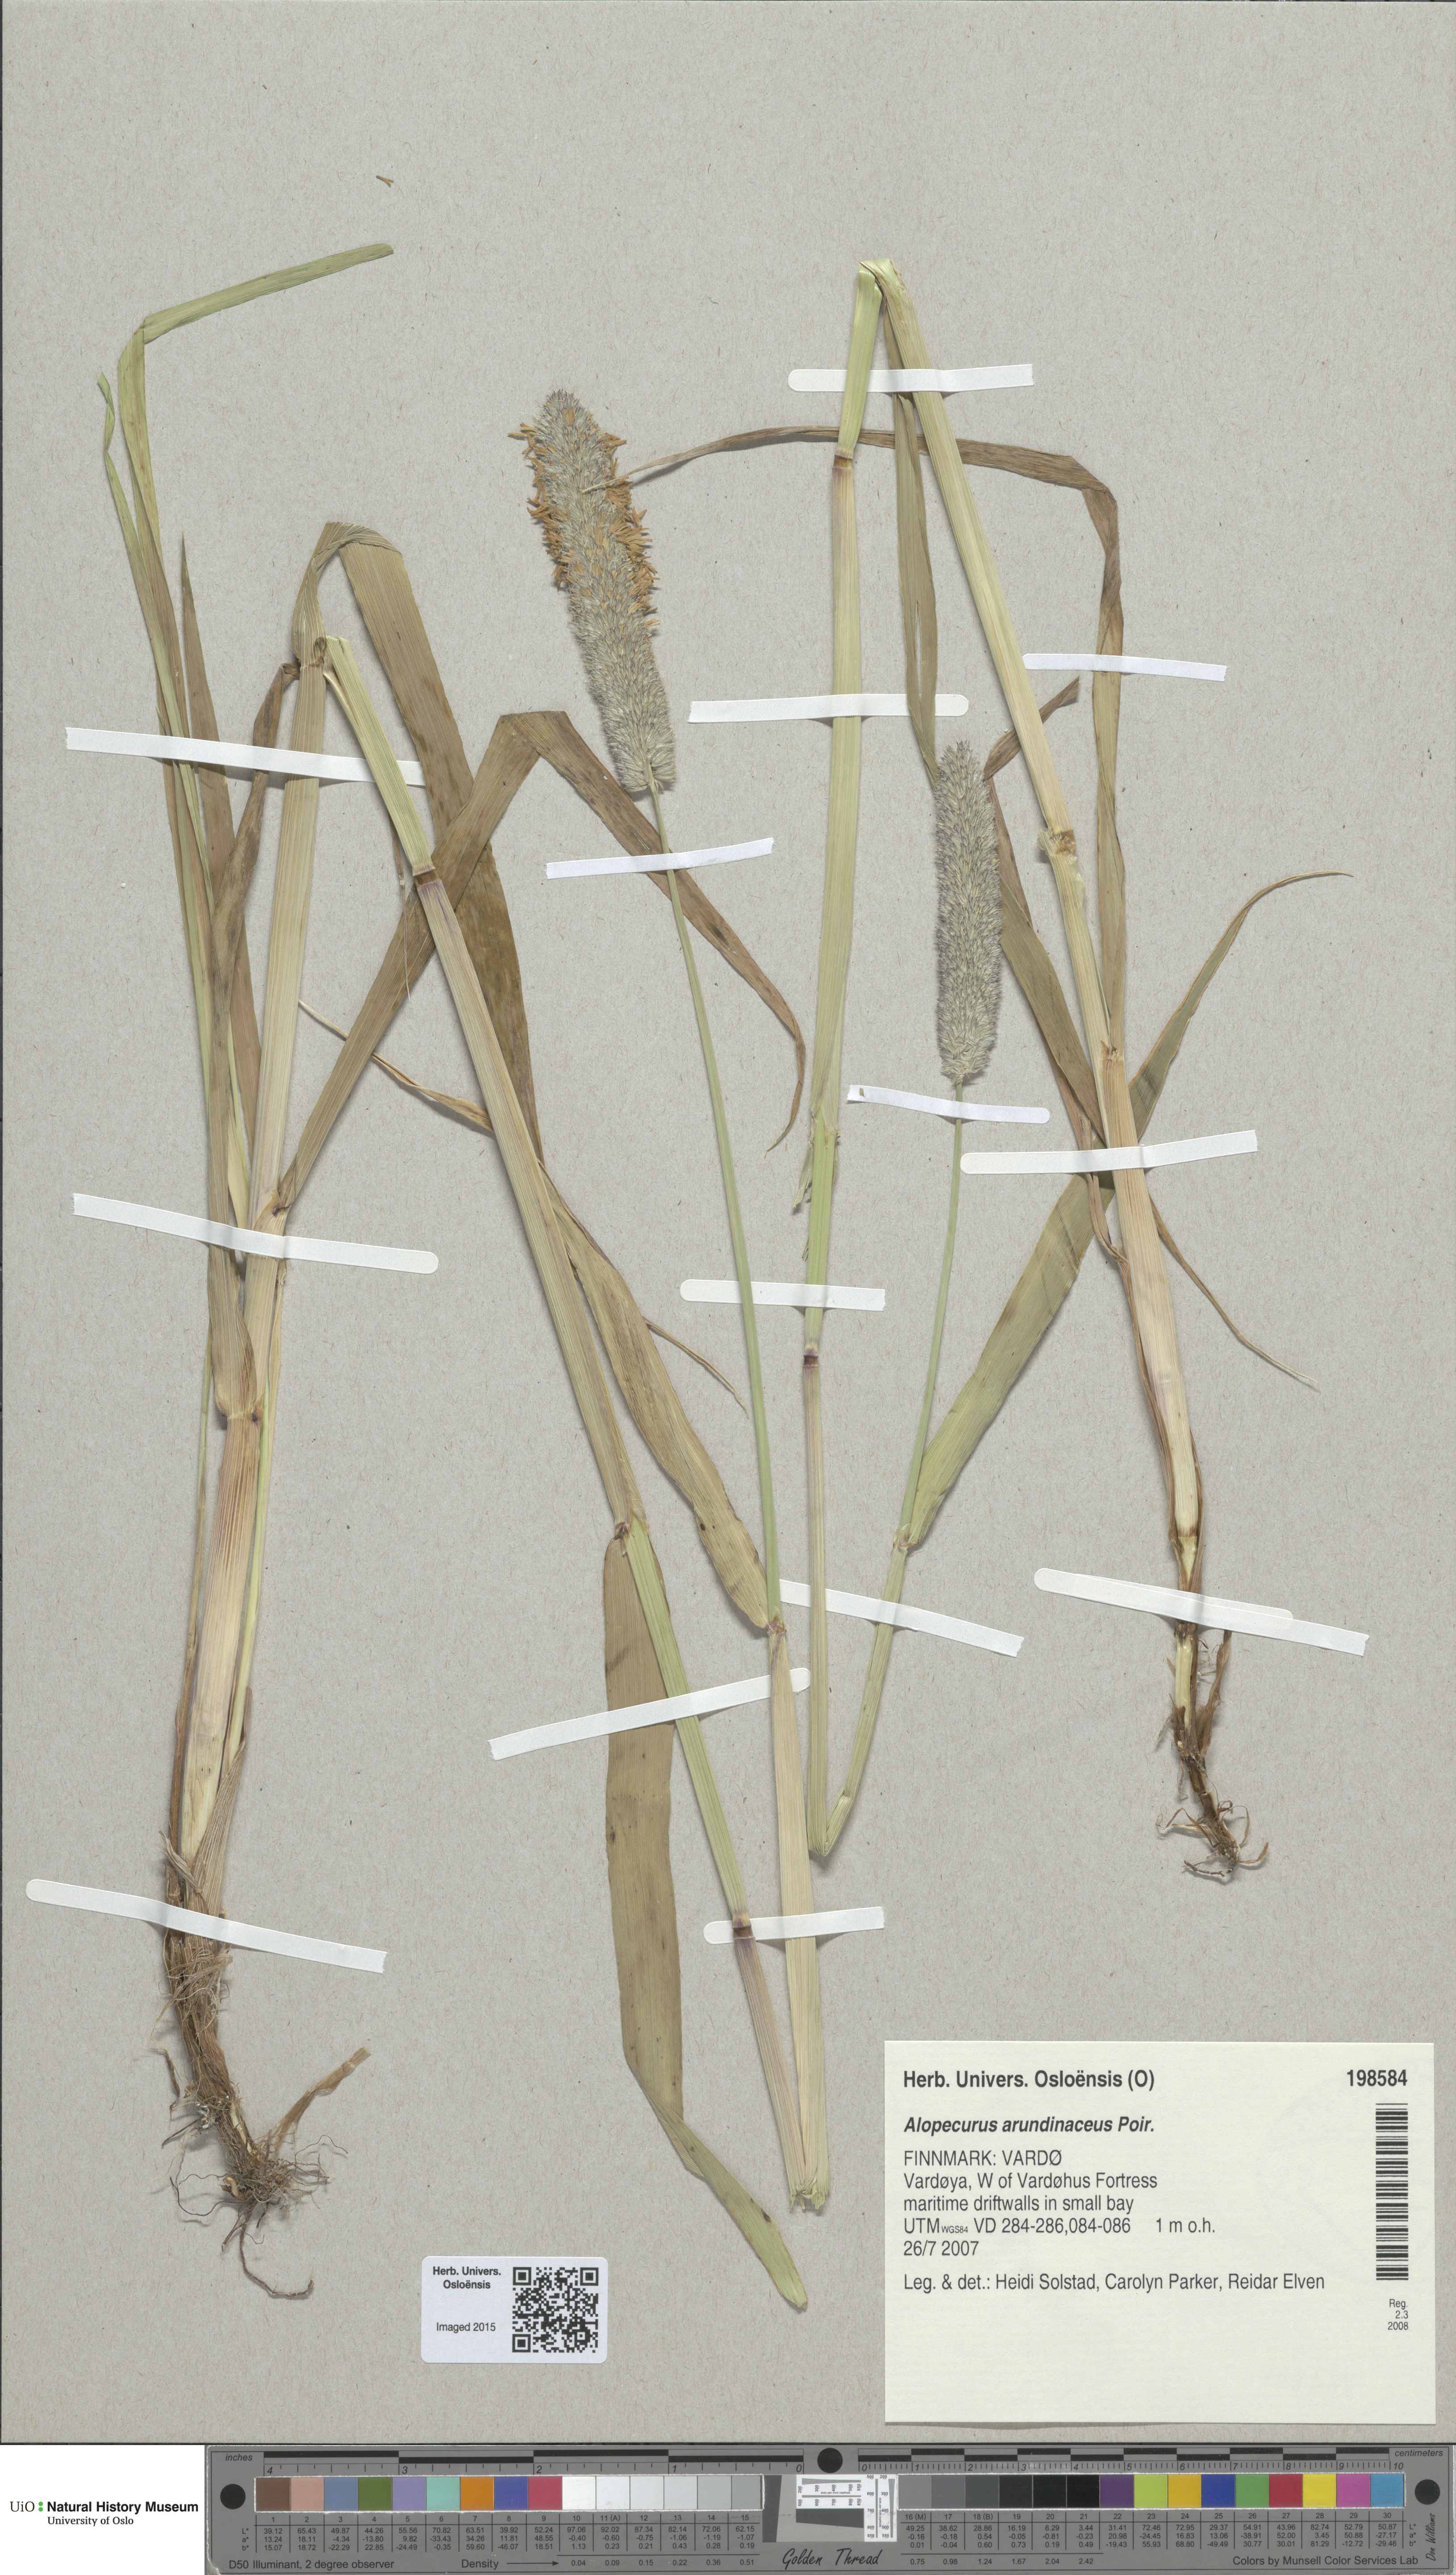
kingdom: Plantae
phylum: Tracheophyta
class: Liliopsida
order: Poales
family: Poaceae
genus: Alopecurus
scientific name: Alopecurus arundinaceus
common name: Creeping meadow foxtail
